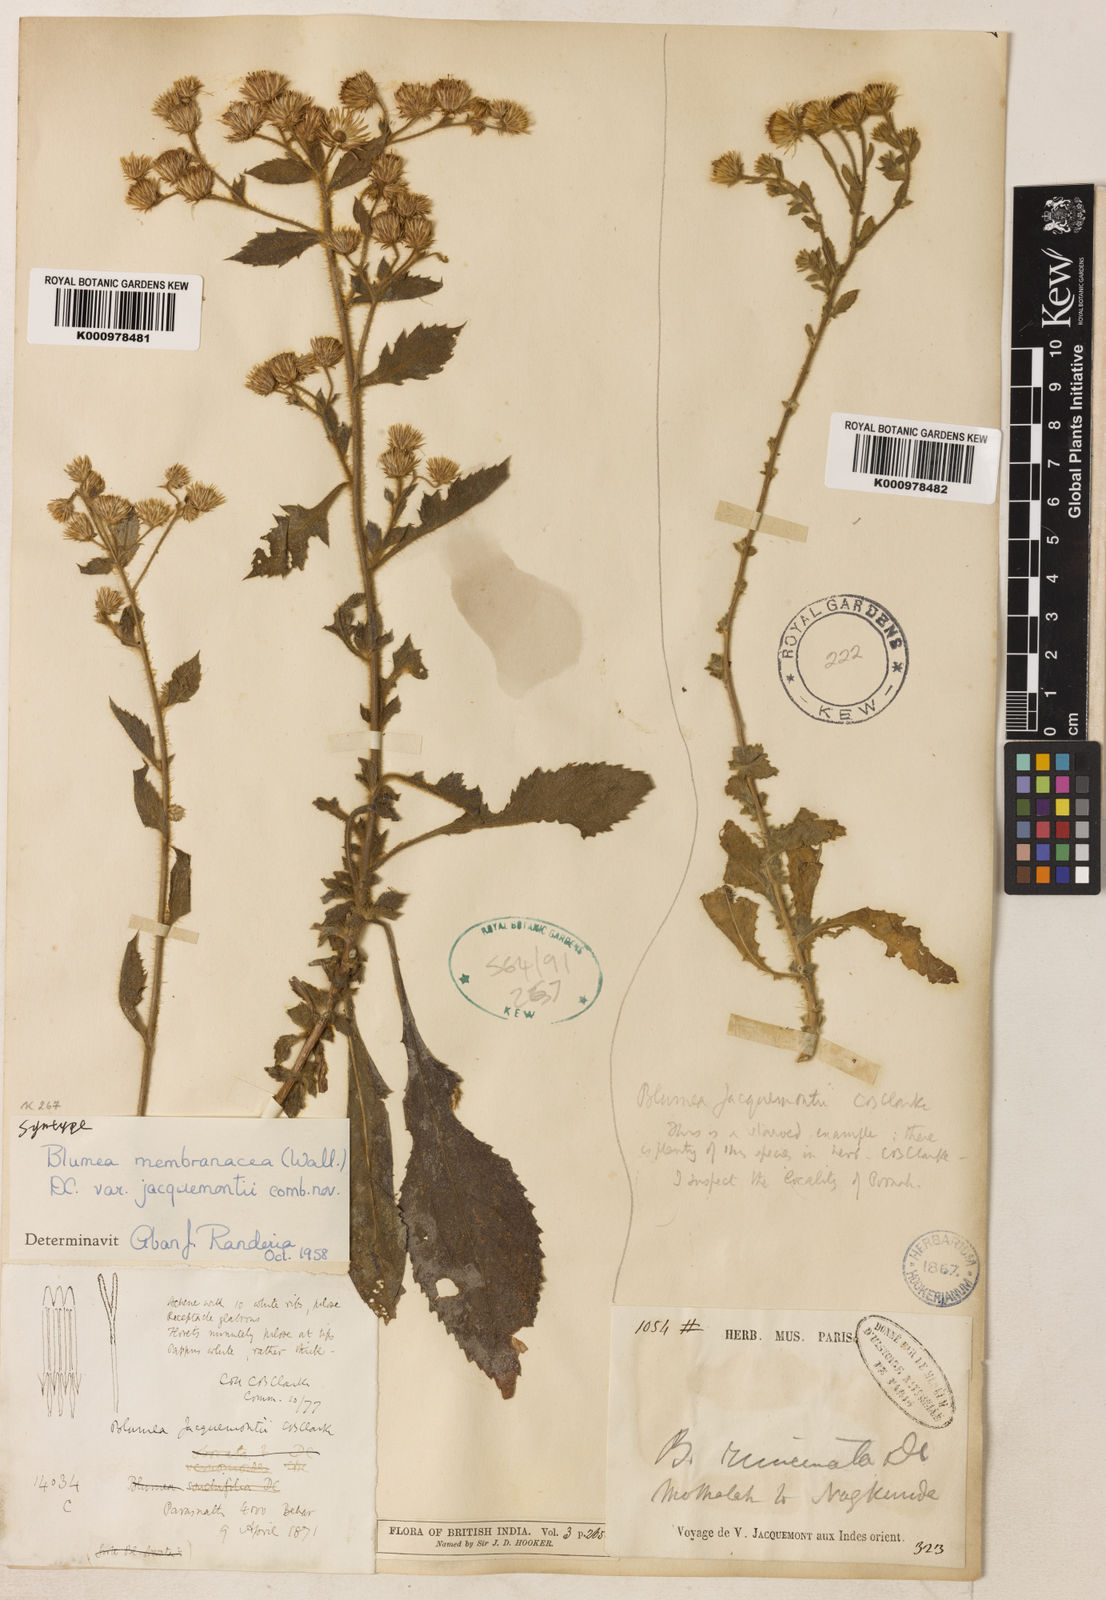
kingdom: Plantae
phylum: Tracheophyta
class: Magnoliopsida
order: Asterales
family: Asteraceae
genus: Blumea
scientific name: Blumea
